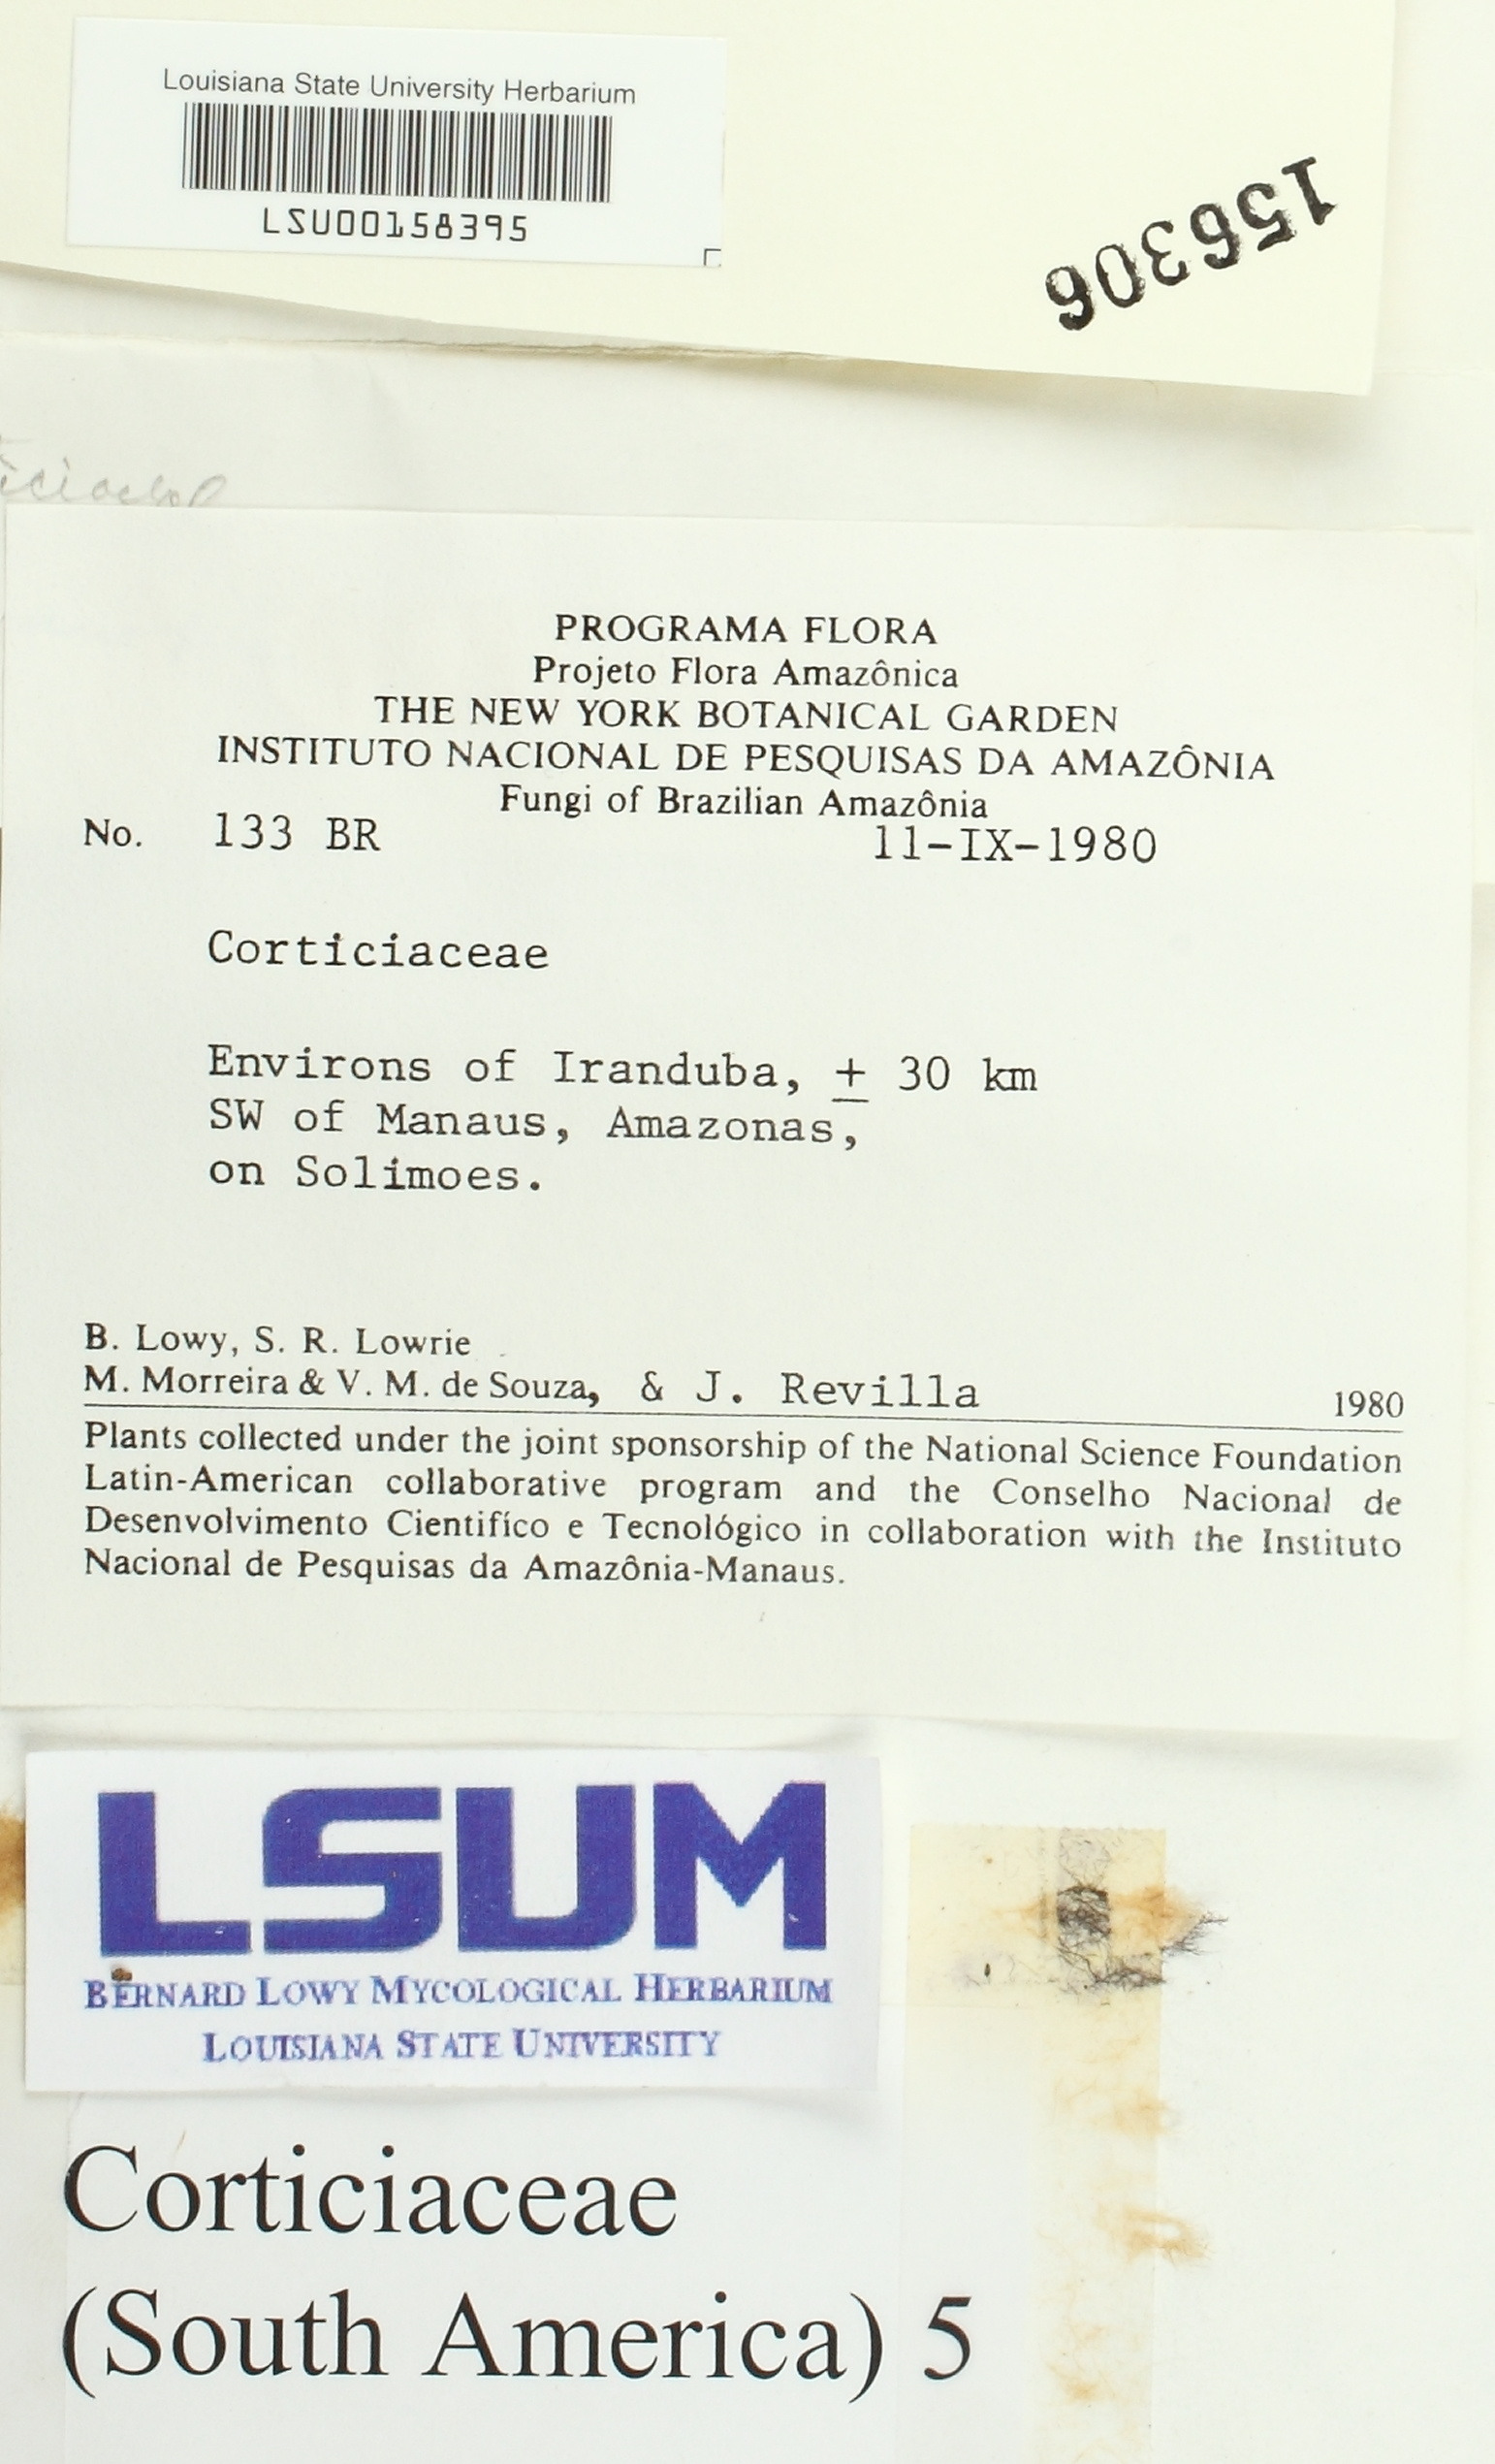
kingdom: Fungi
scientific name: Fungi
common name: Fungi
